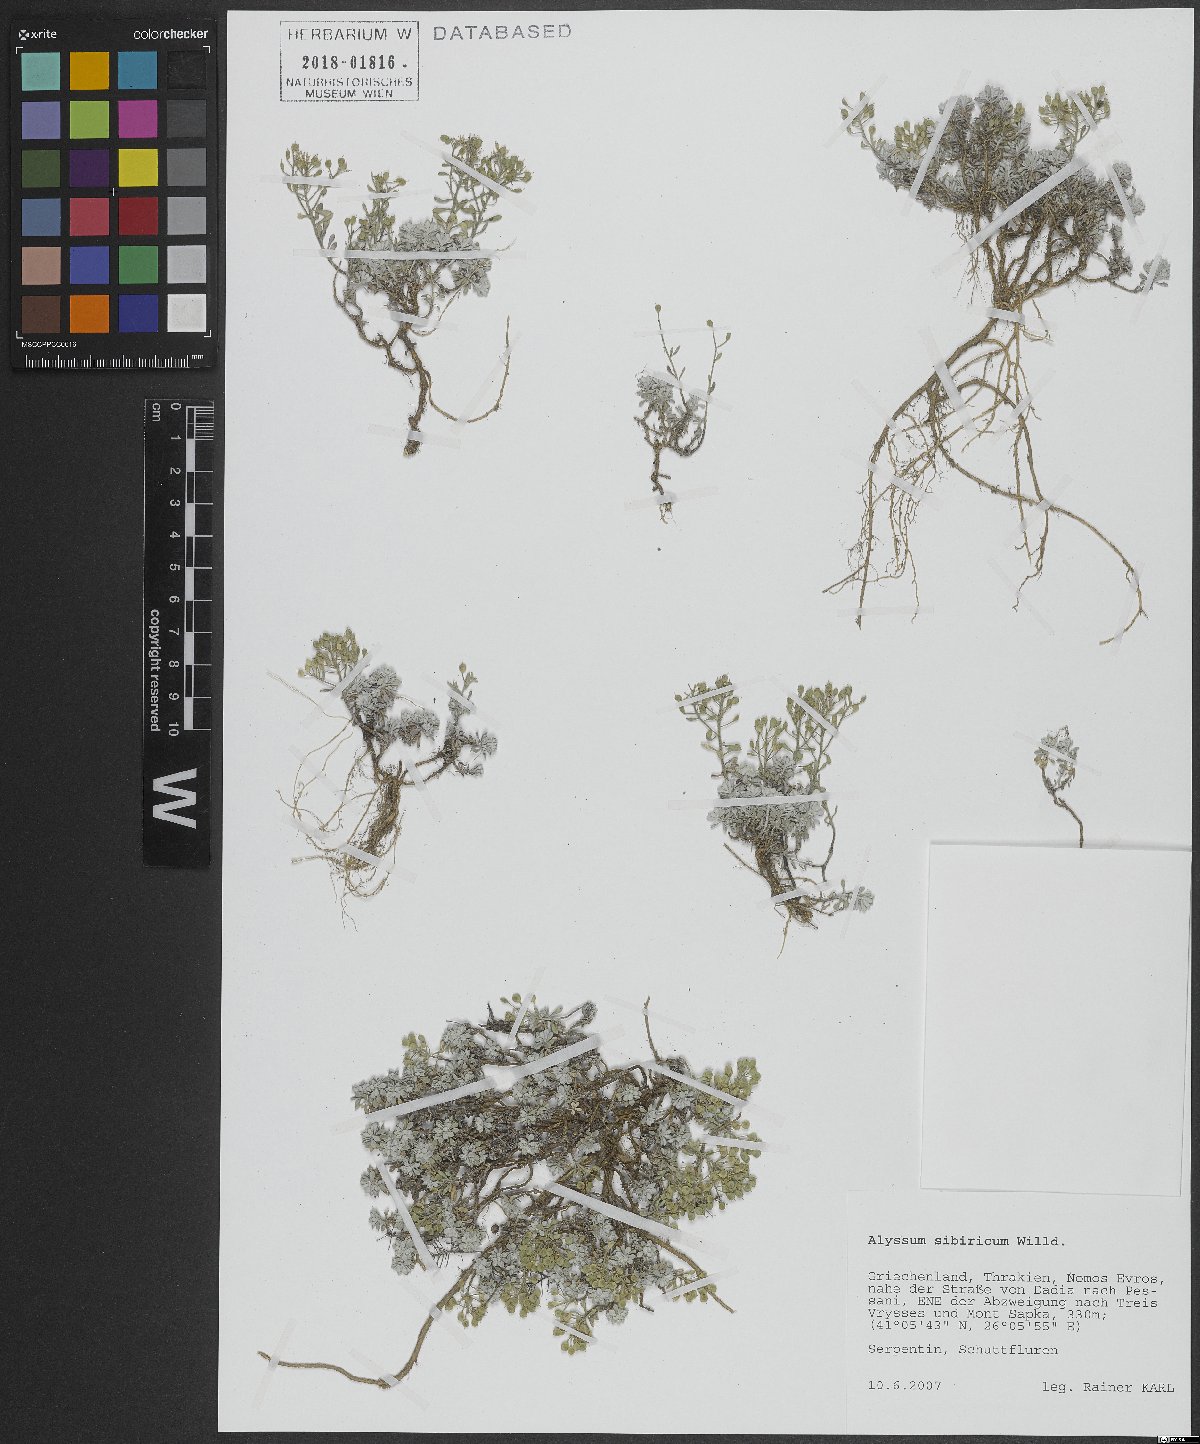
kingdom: Plantae
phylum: Tracheophyta
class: Magnoliopsida
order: Brassicales
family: Brassicaceae
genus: Odontarrhena
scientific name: Odontarrhena sibirica
